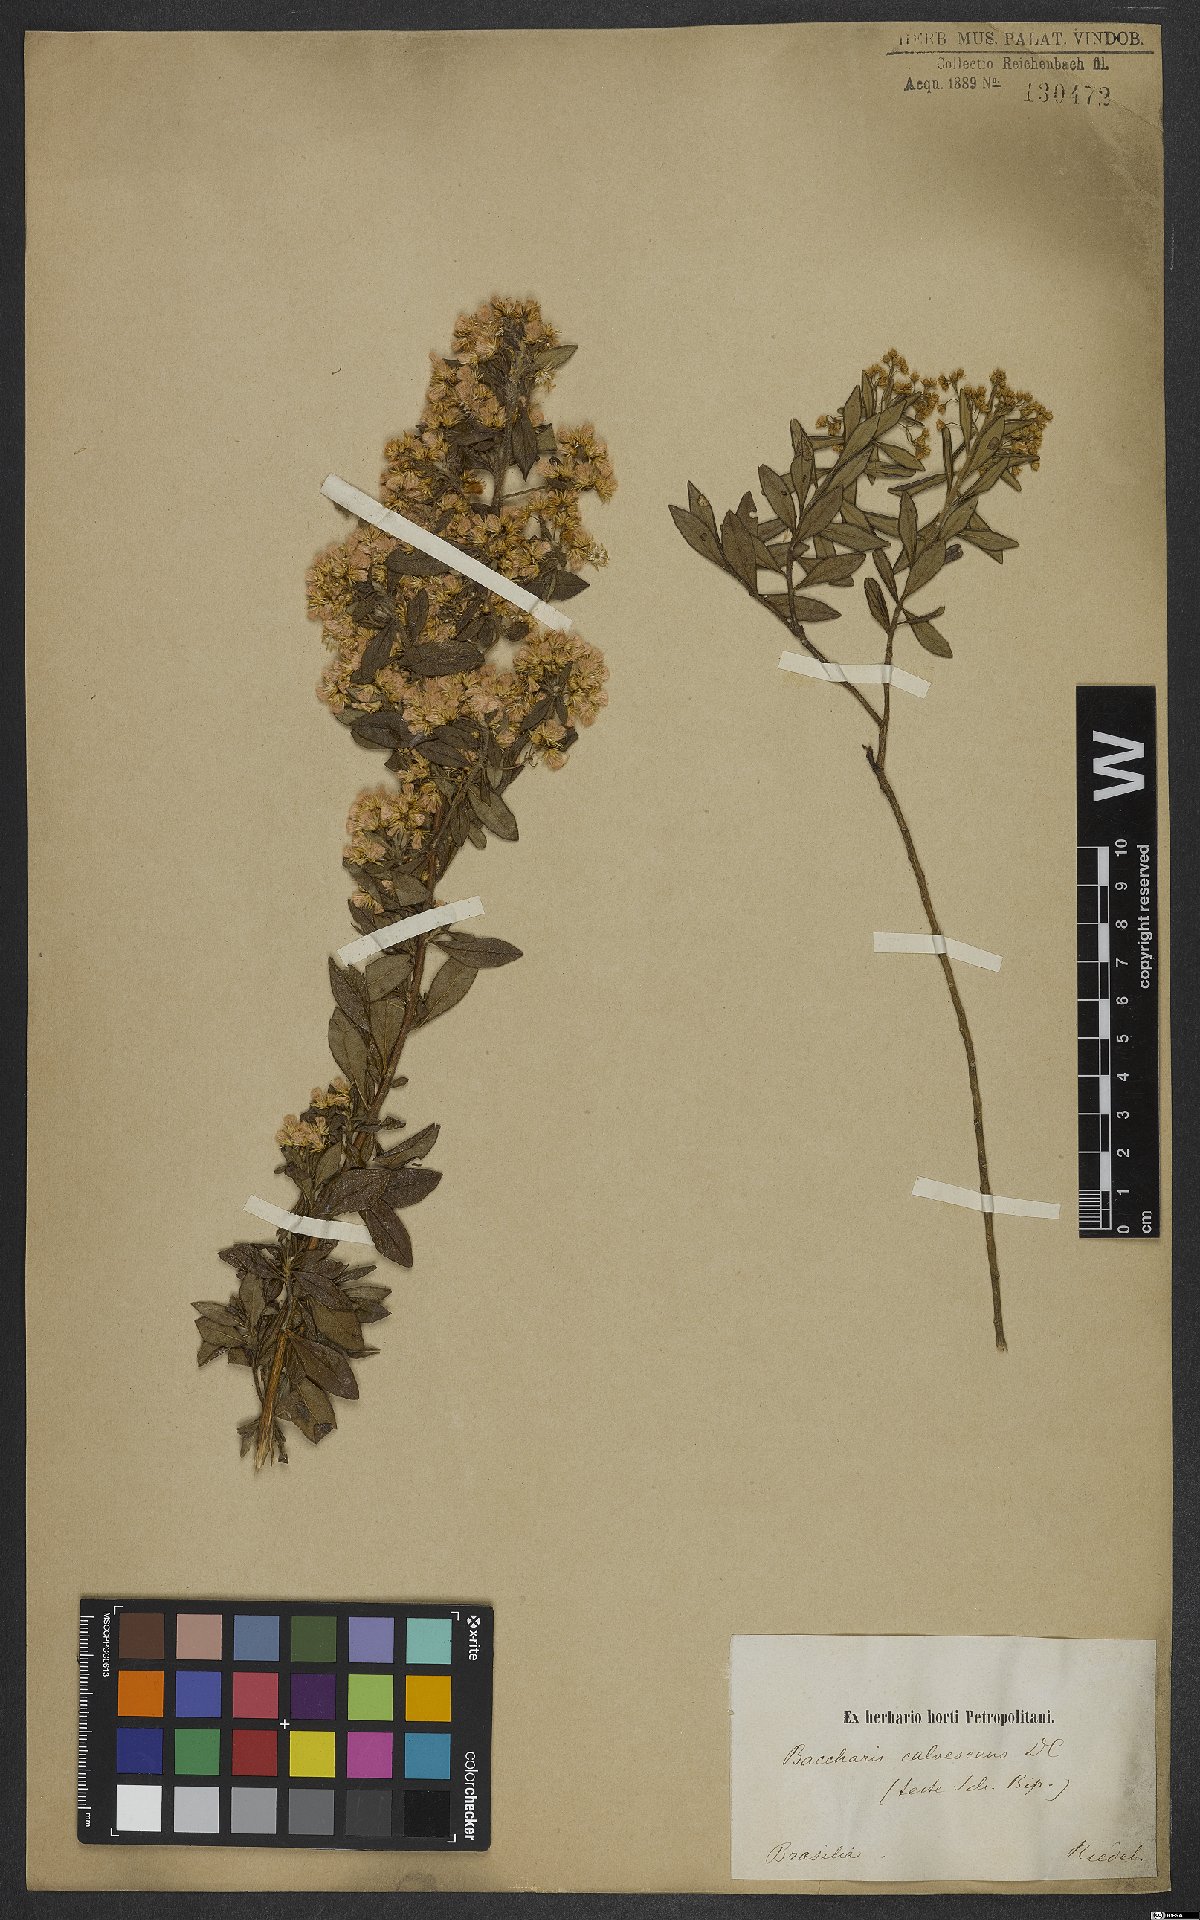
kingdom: Plantae
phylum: Tracheophyta
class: Magnoliopsida
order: Asterales
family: Asteraceae
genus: Baccharis
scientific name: Baccharis calvescens
